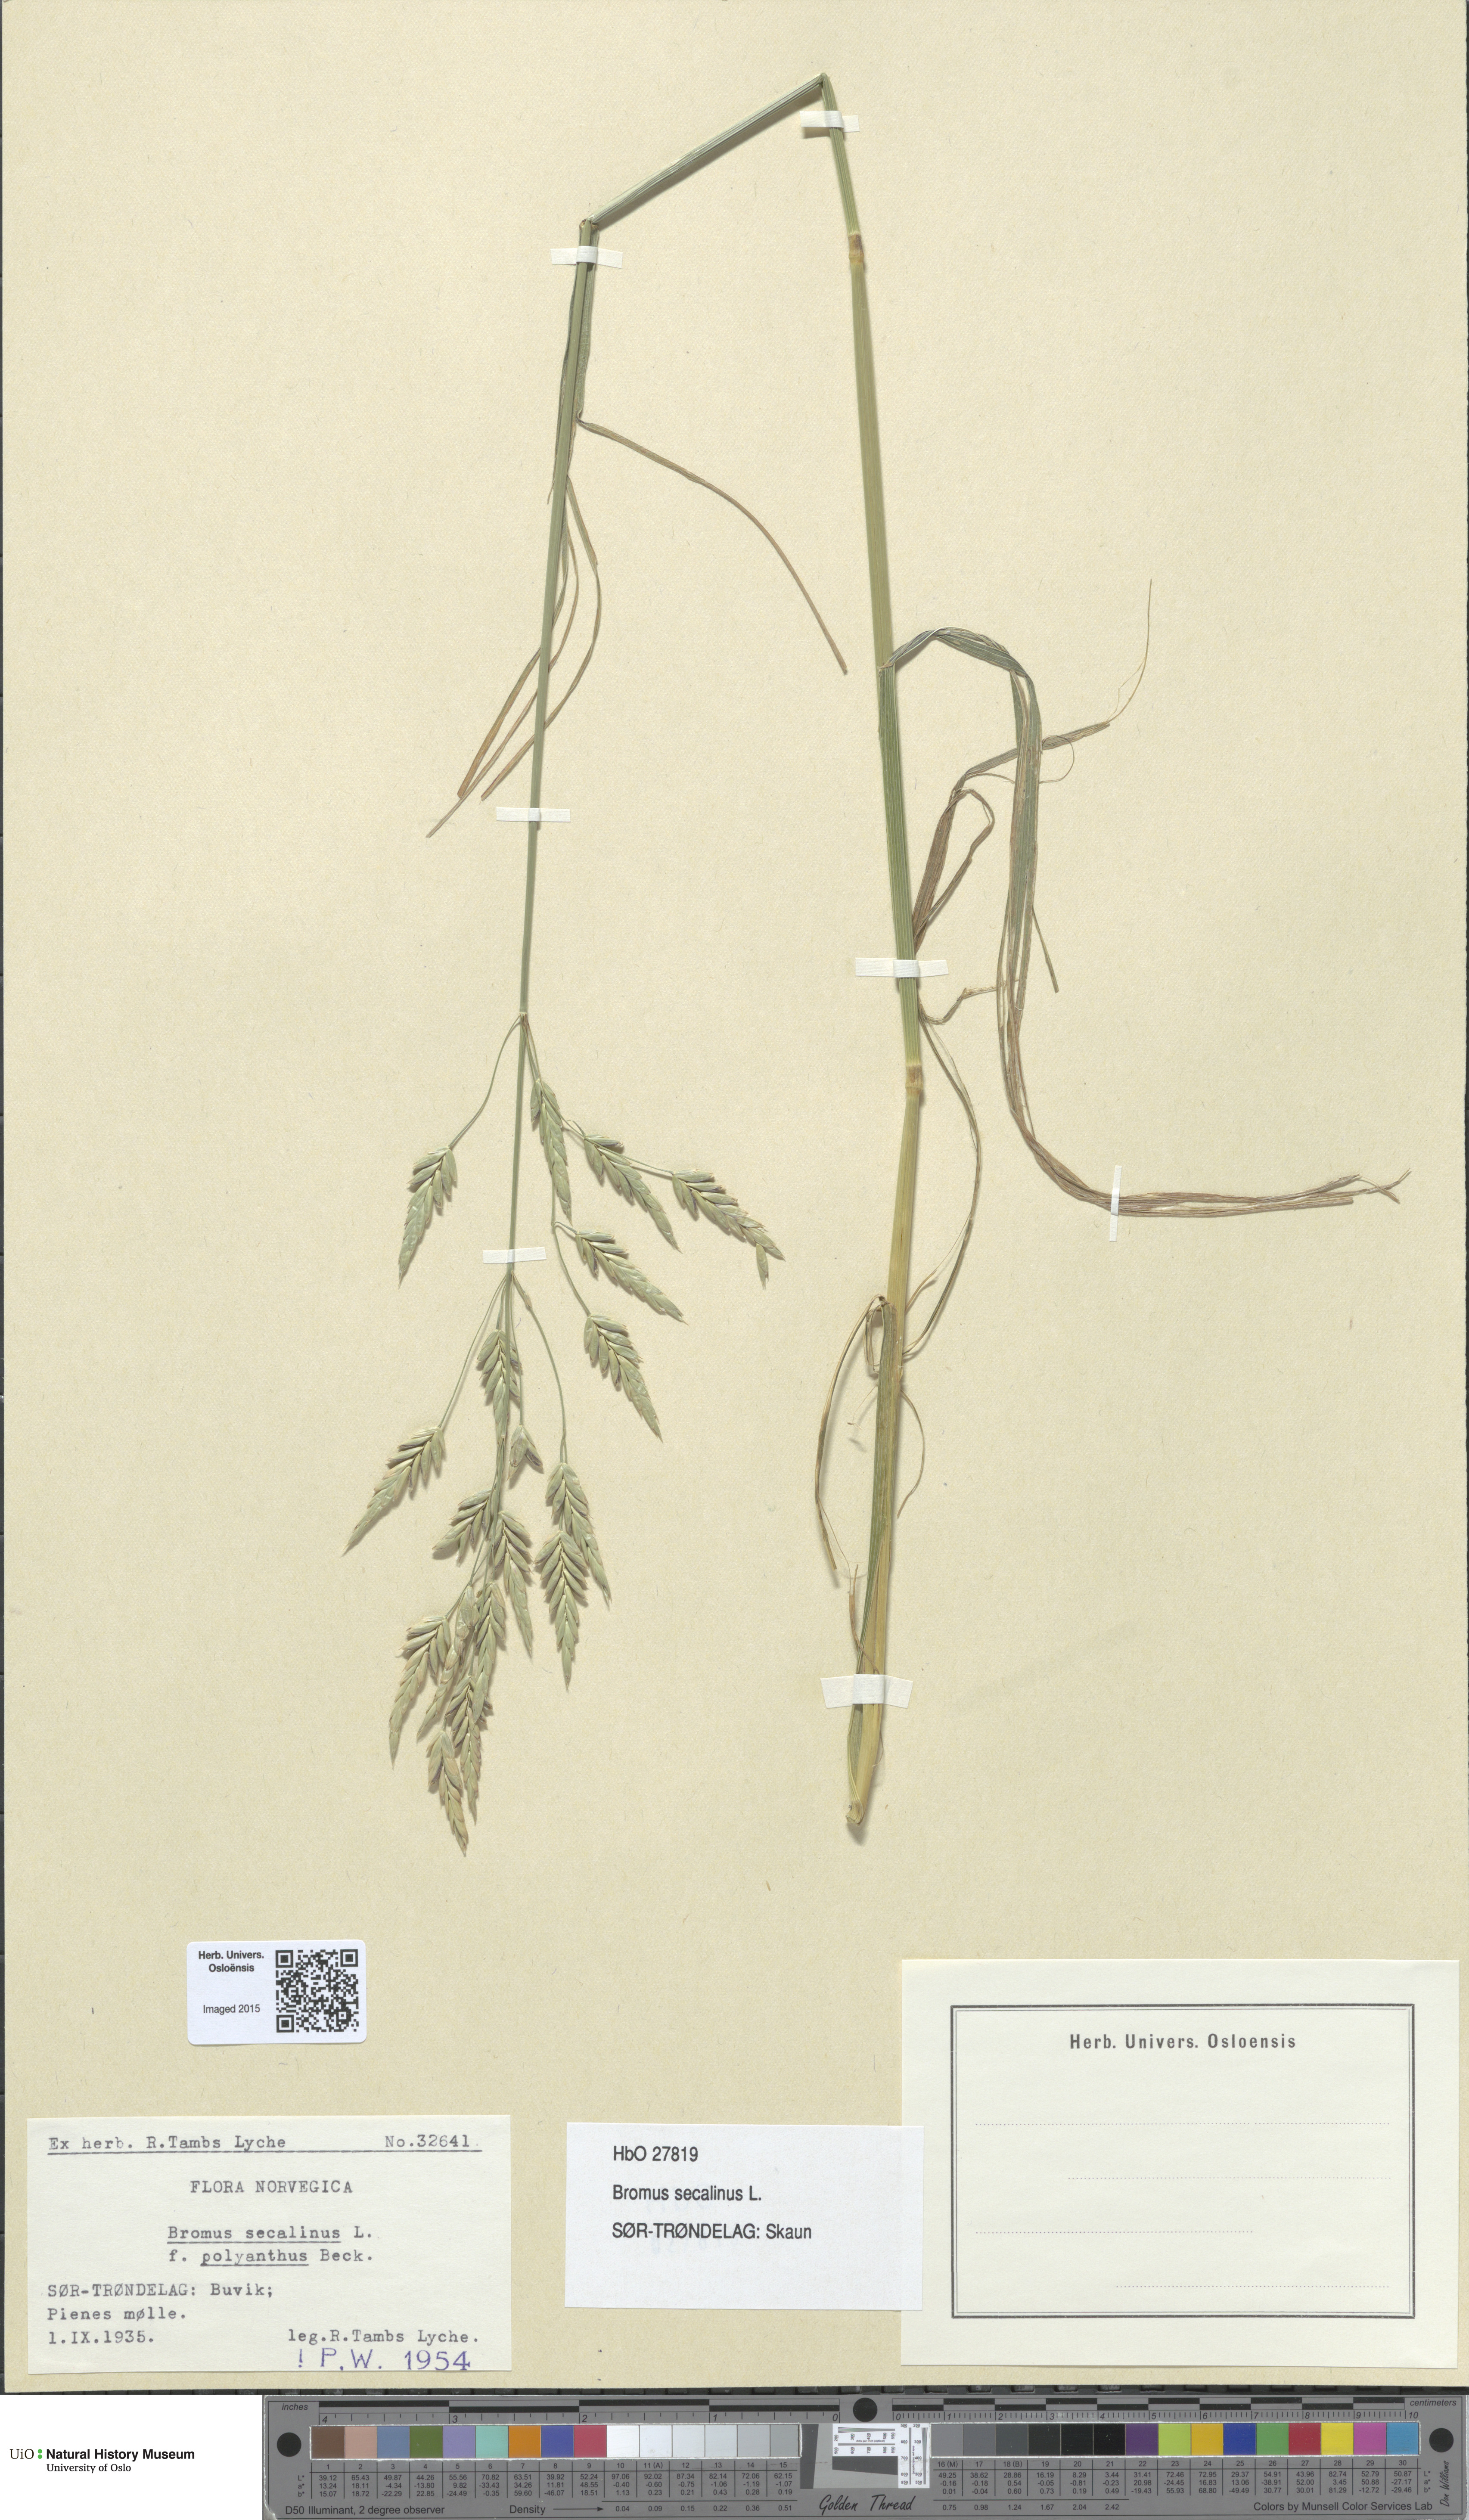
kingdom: Plantae
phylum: Tracheophyta
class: Liliopsida
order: Poales
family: Poaceae
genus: Bromus
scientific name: Bromus secalinus
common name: Rye brome
